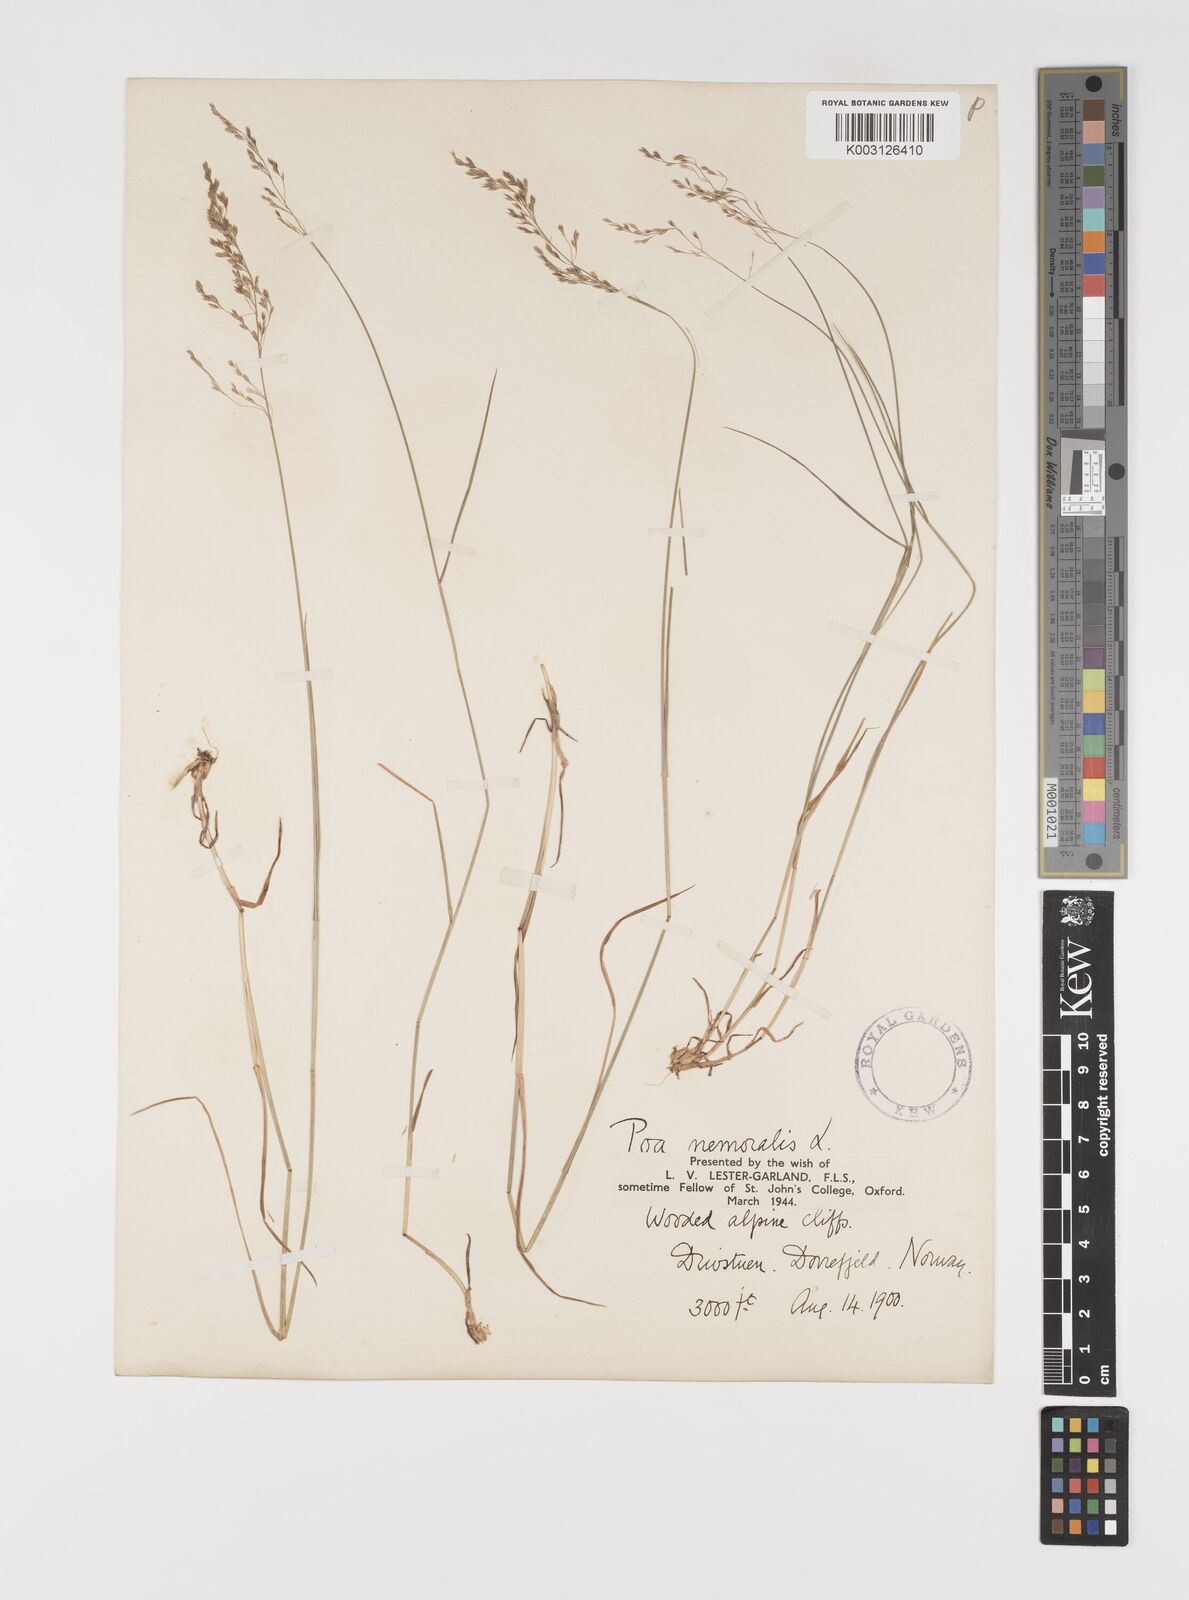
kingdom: Plantae
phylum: Tracheophyta
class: Liliopsida
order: Poales
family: Poaceae
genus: Poa
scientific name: Poa nemoralis
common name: Wood bluegrass
